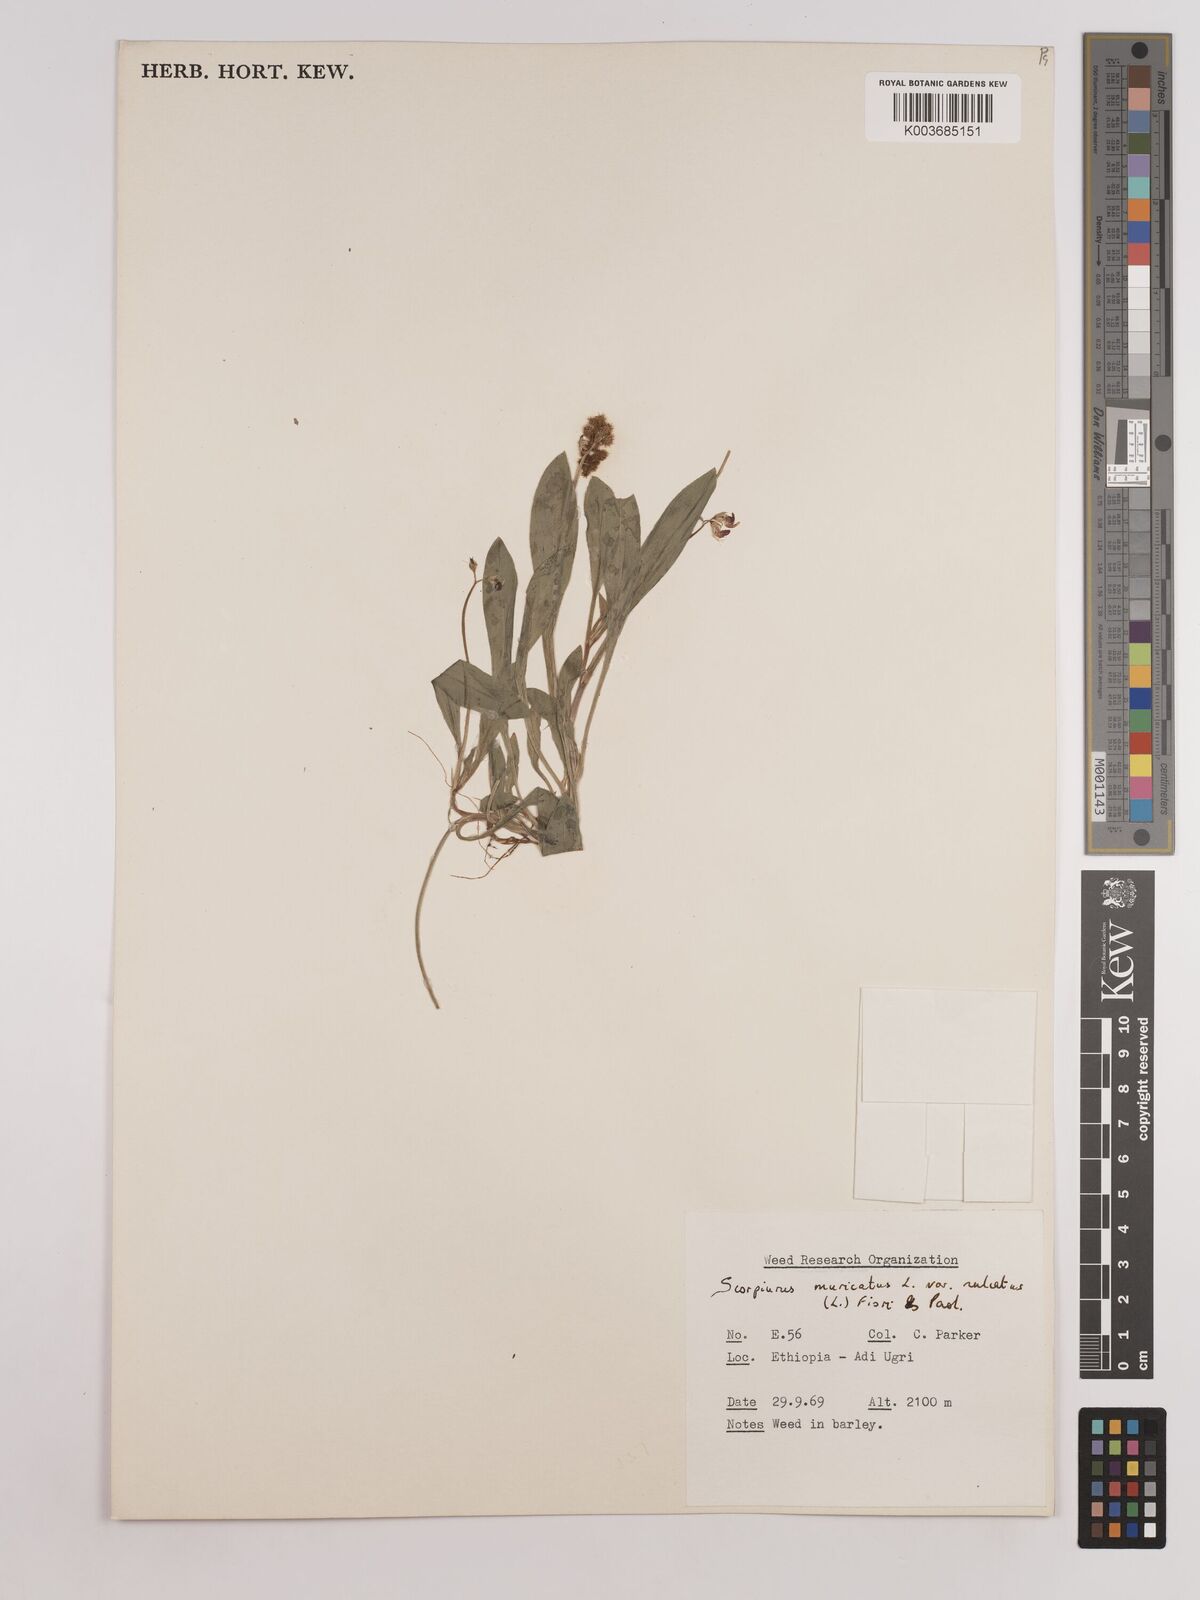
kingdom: Plantae
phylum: Tracheophyta
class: Magnoliopsida
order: Fabales
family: Fabaceae
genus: Scorpiurus
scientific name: Scorpiurus muricatus
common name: Caterpillar-plant
